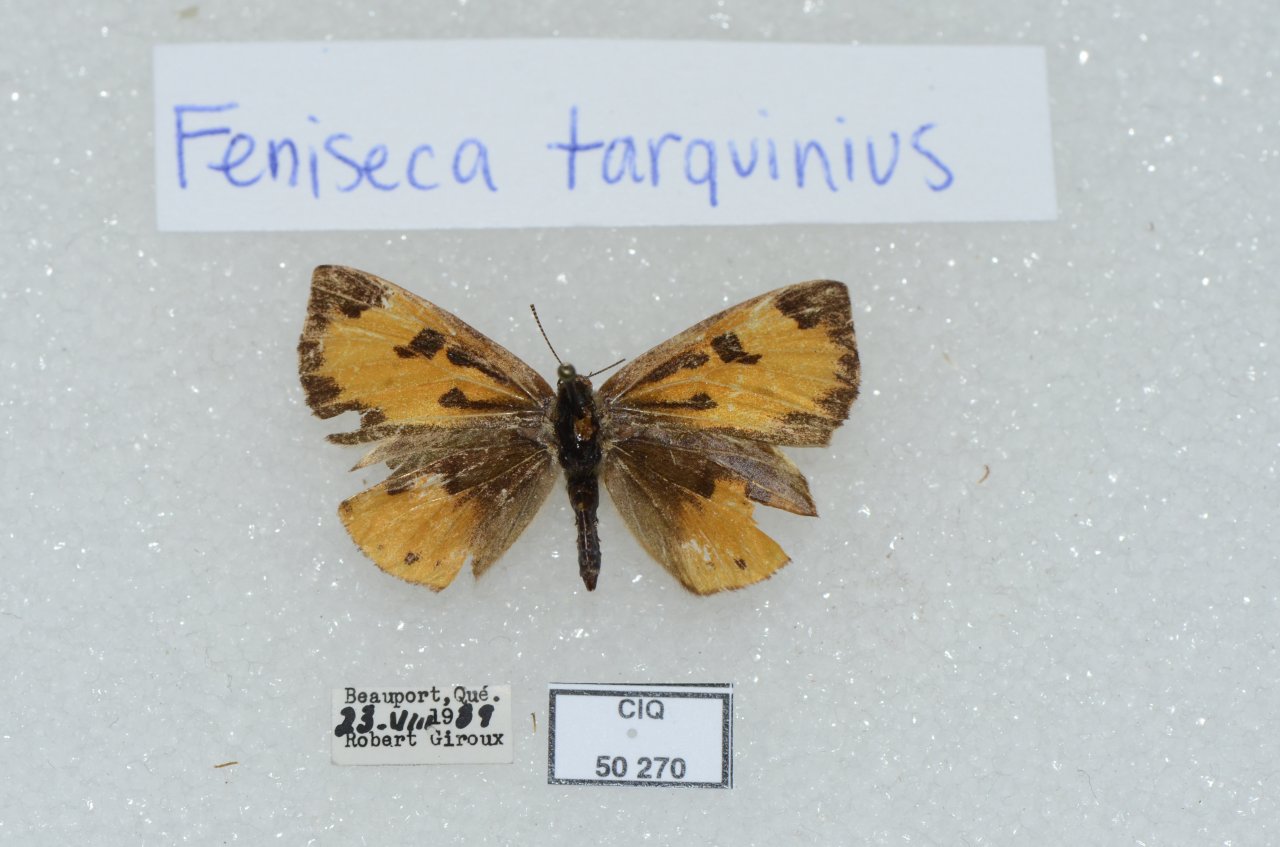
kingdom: Animalia
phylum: Arthropoda
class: Insecta
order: Lepidoptera
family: Lycaenidae
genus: Feniseca
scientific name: Feniseca tarquinius
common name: Harvester
